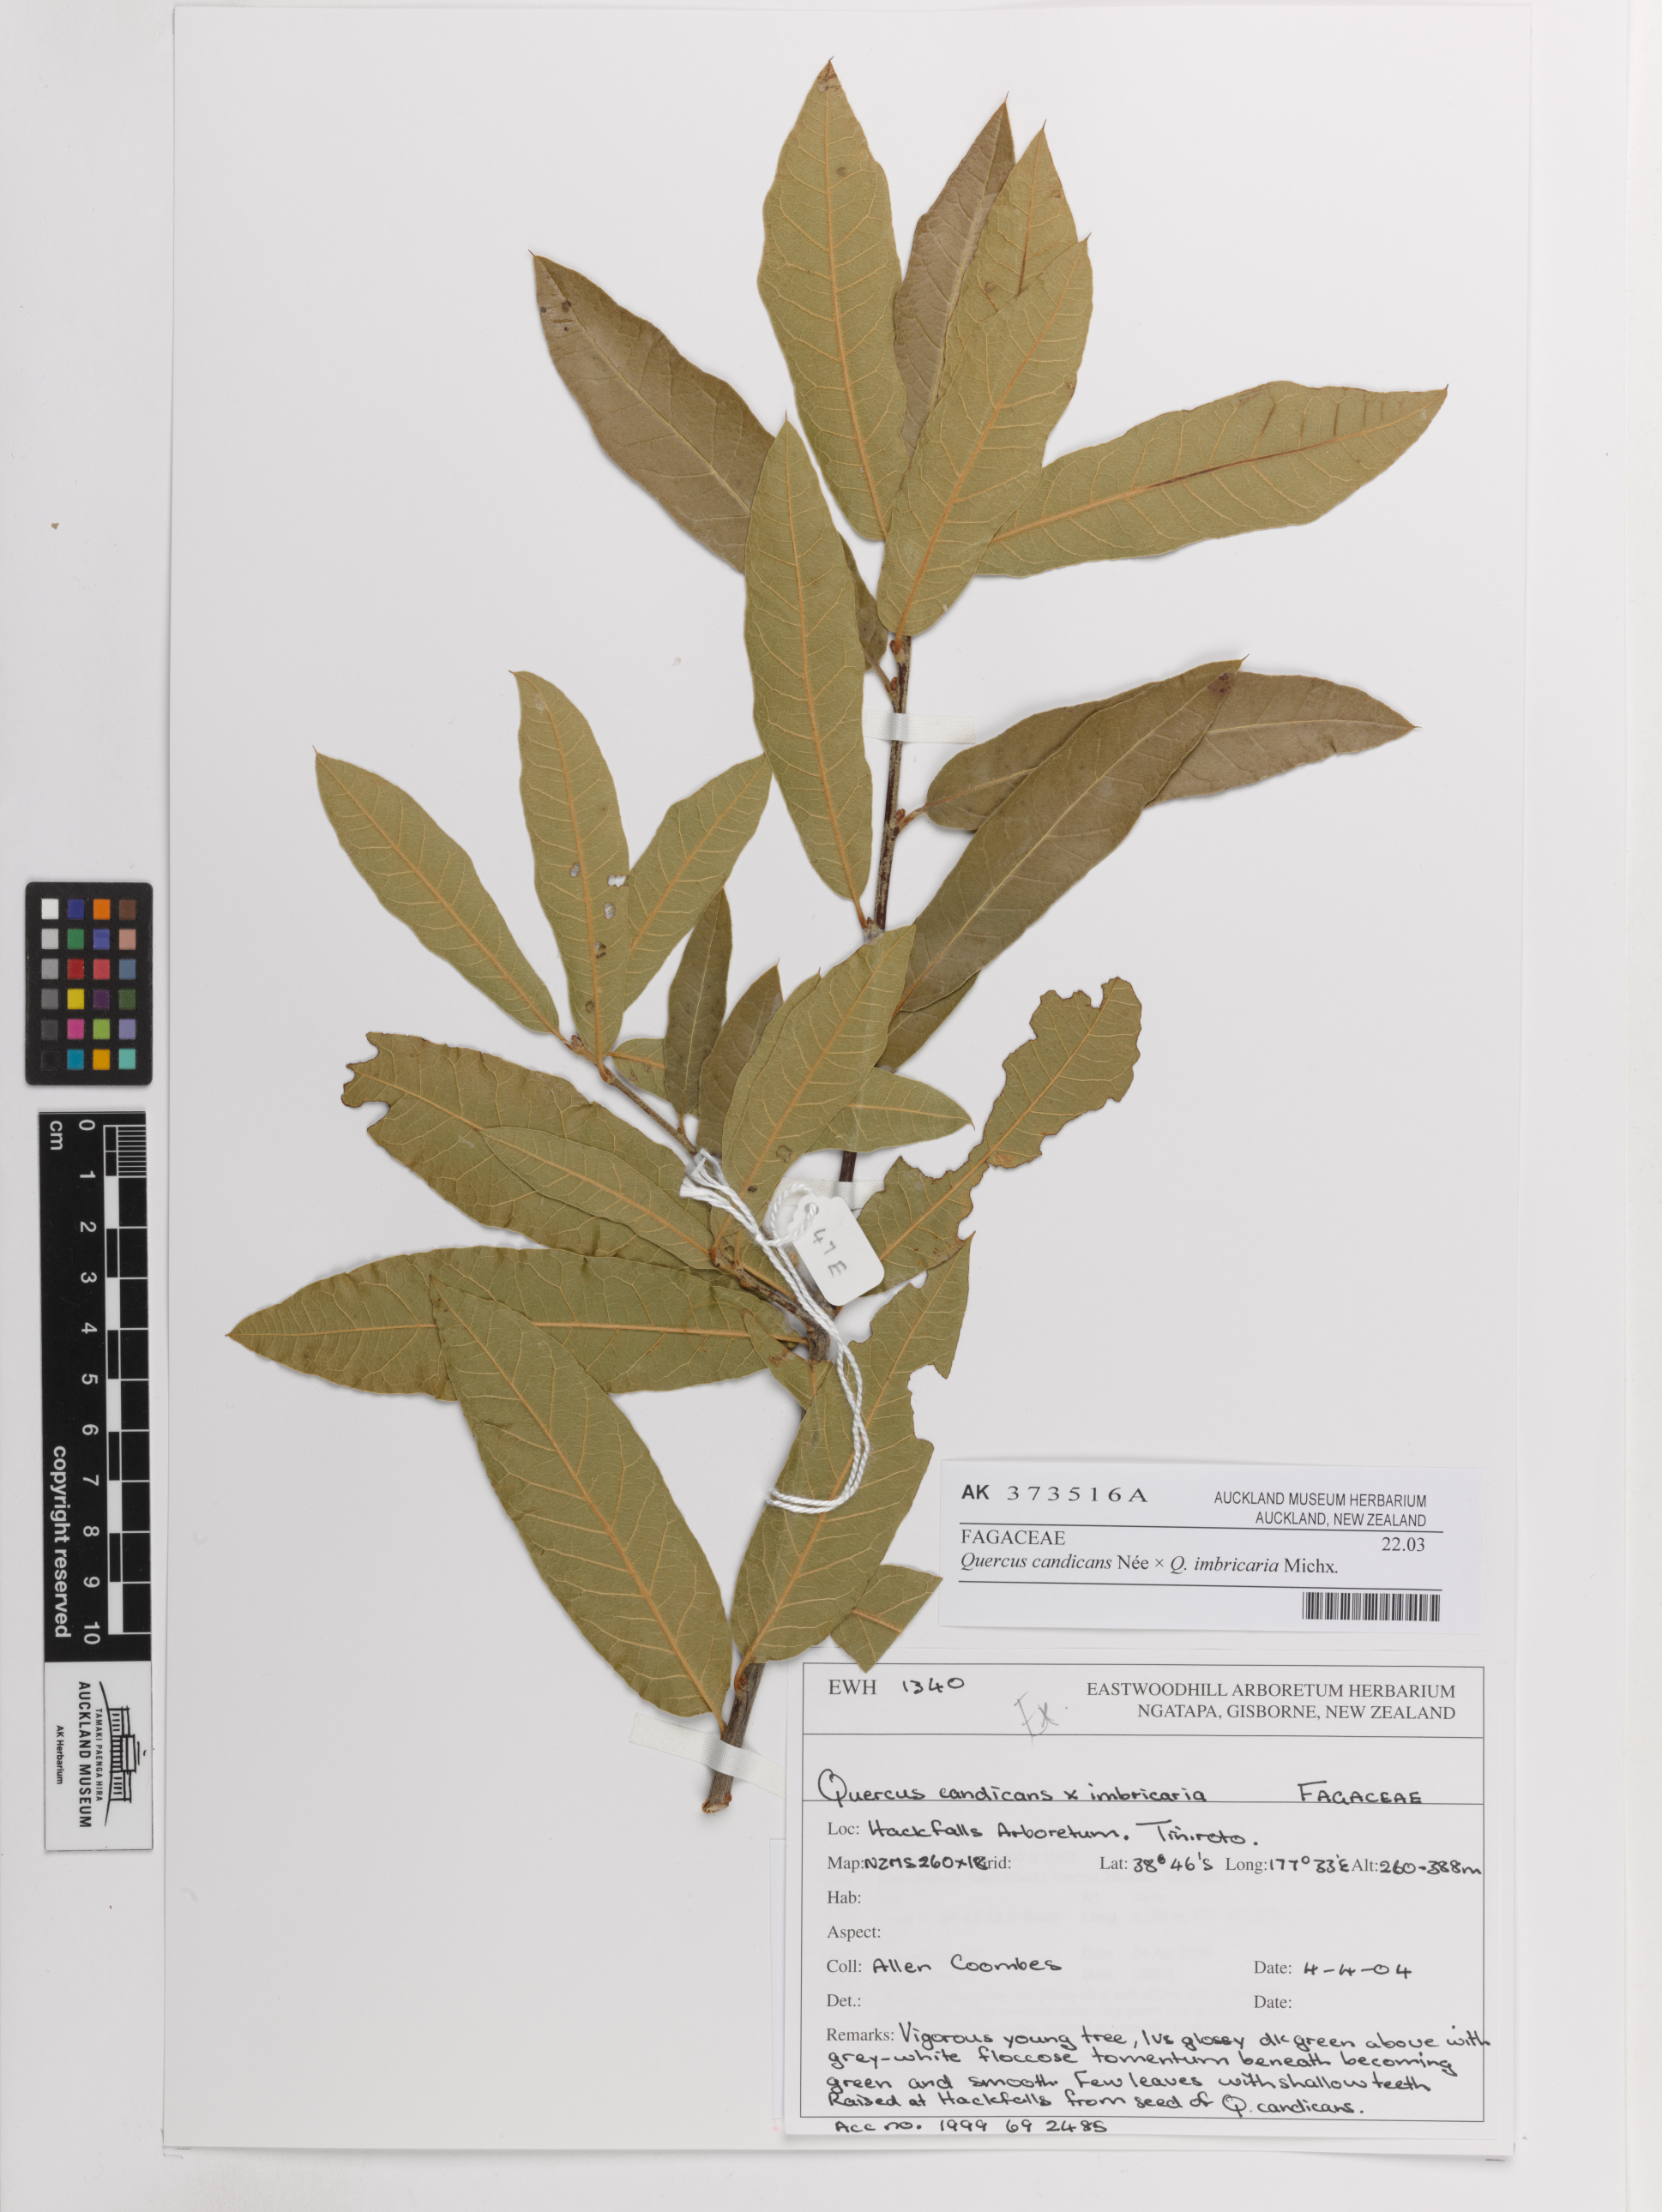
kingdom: Plantae
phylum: Tracheophyta
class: Magnoliopsida
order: Fagales
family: Fagaceae
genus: Quercus
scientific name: Quercus
